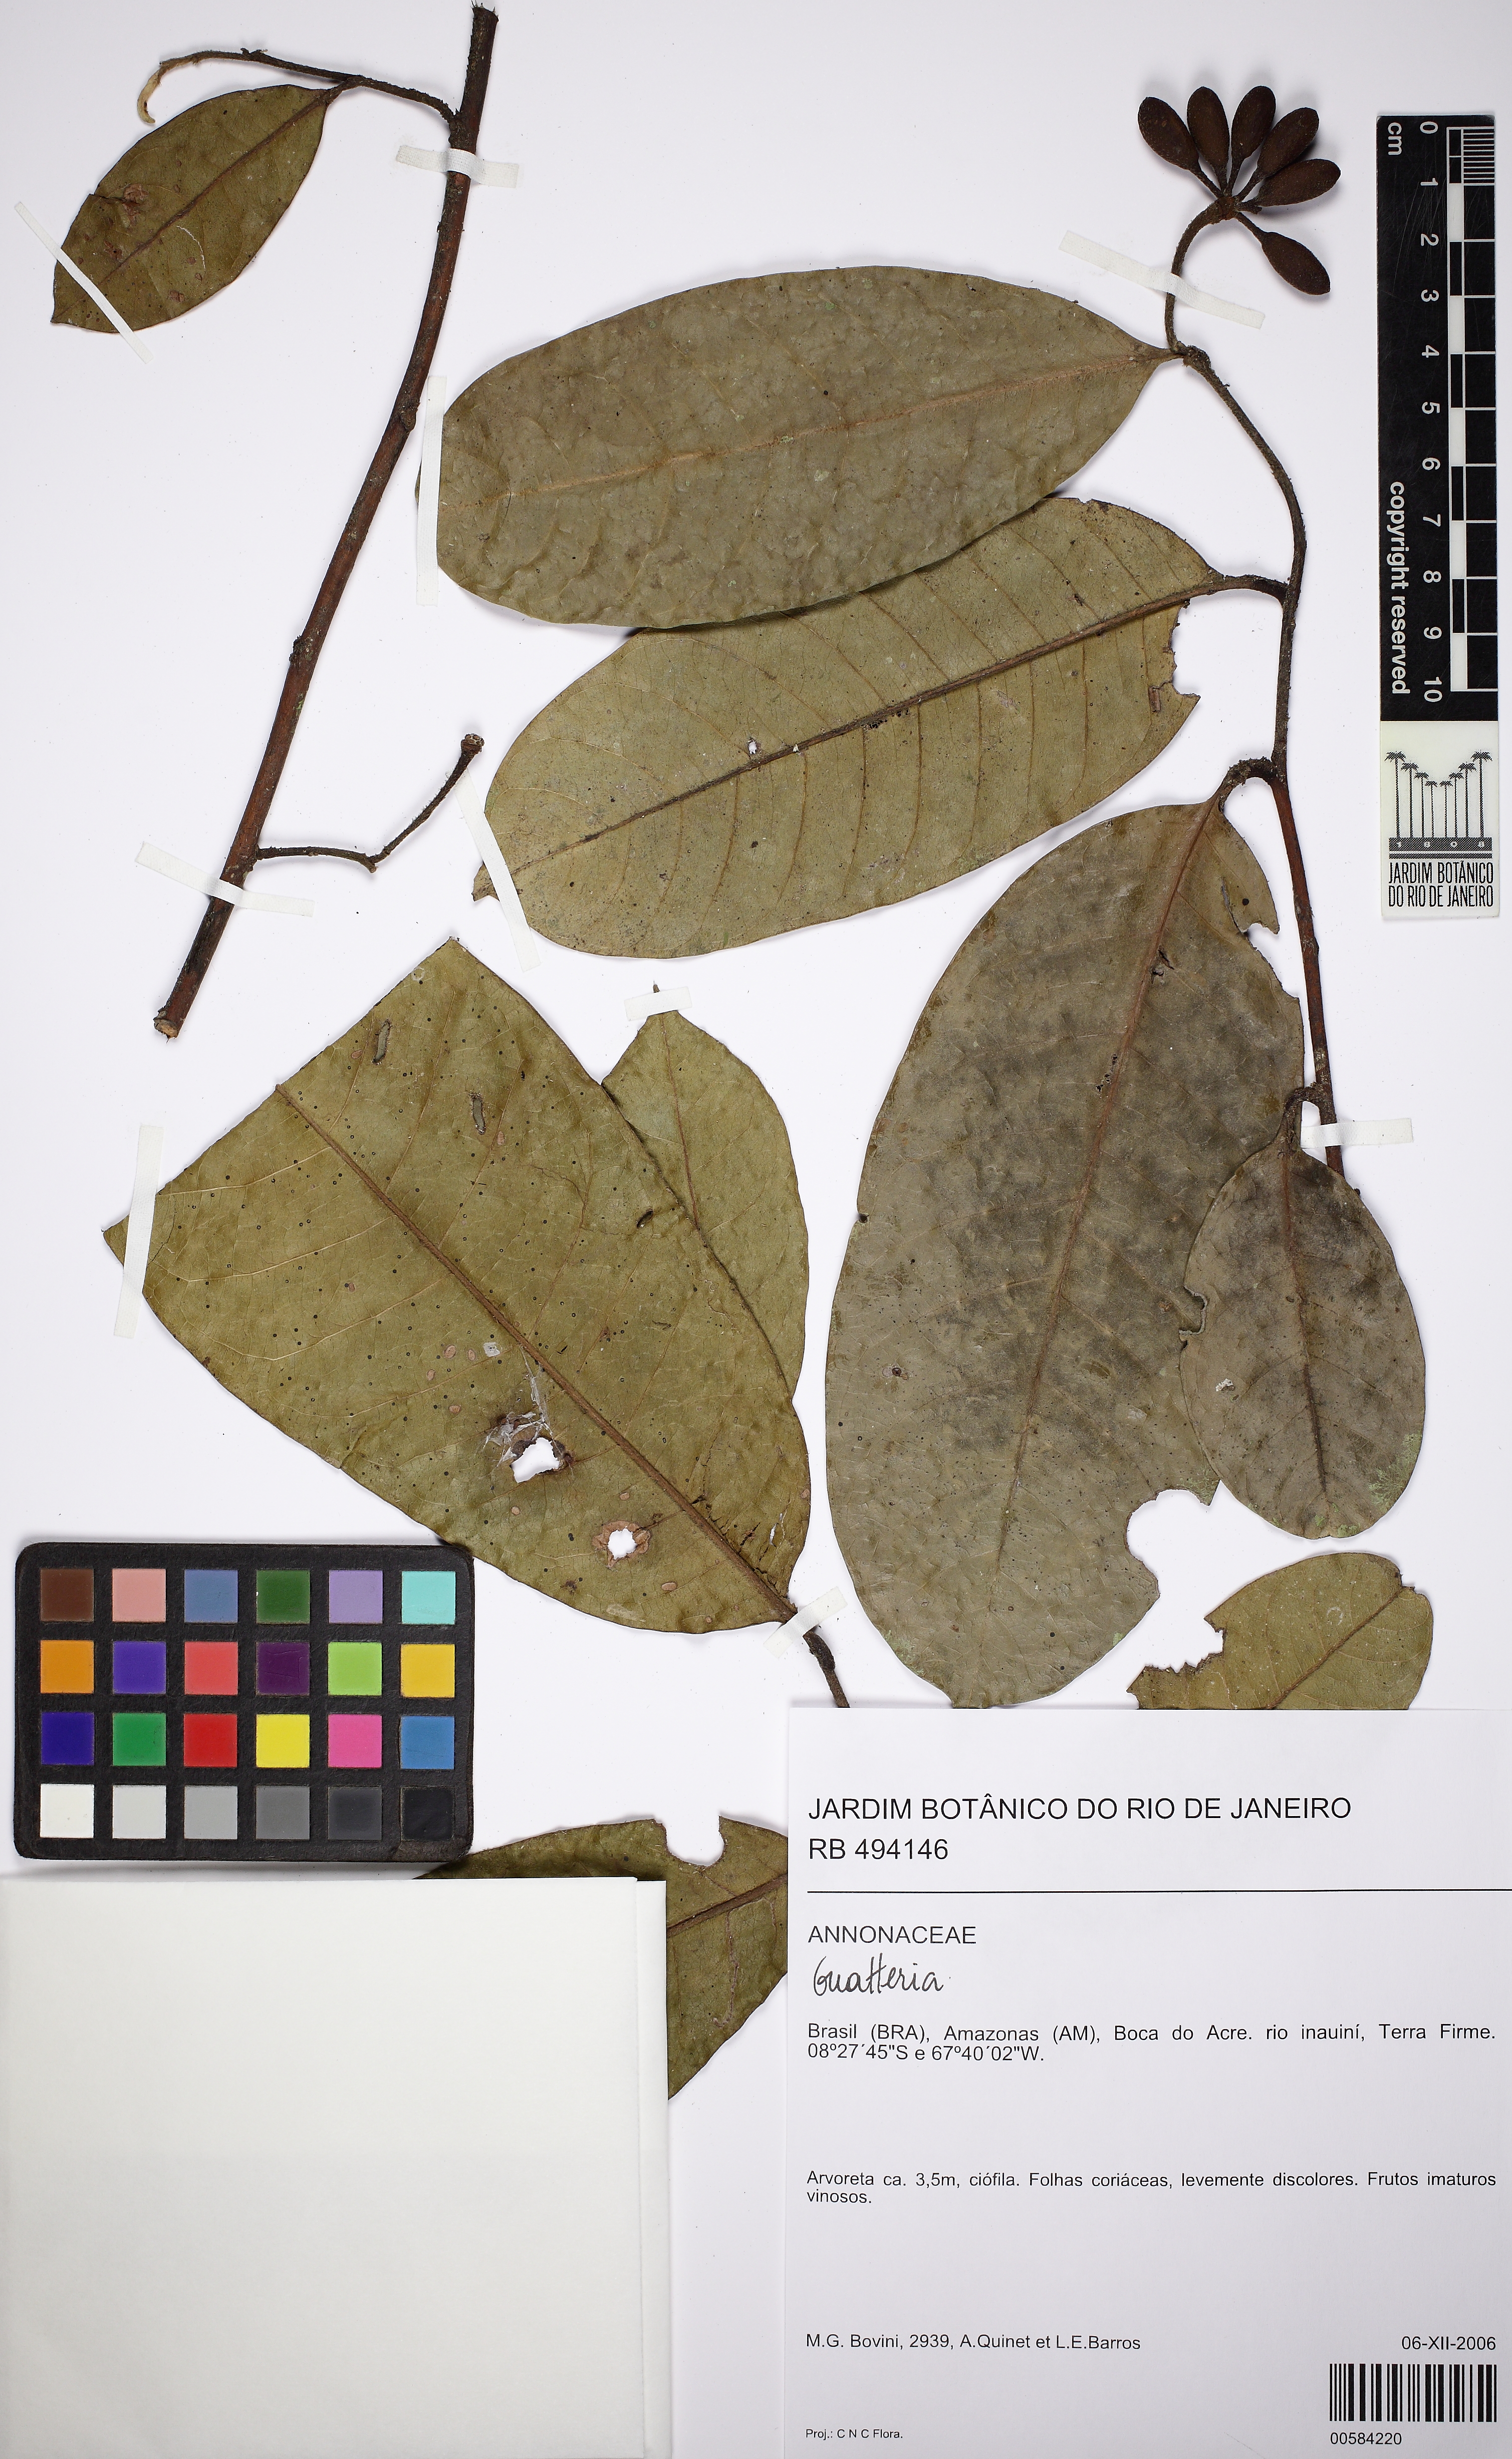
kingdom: Plantae
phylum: Tracheophyta
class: Magnoliopsida
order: Magnoliales
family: Annonaceae
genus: Guatteria
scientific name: Guatteria
